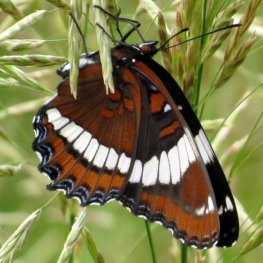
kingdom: Animalia
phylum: Arthropoda
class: Insecta
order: Lepidoptera
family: Nymphalidae
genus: Limenitis
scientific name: Limenitis arthemis
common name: Red-spotted Admiral
